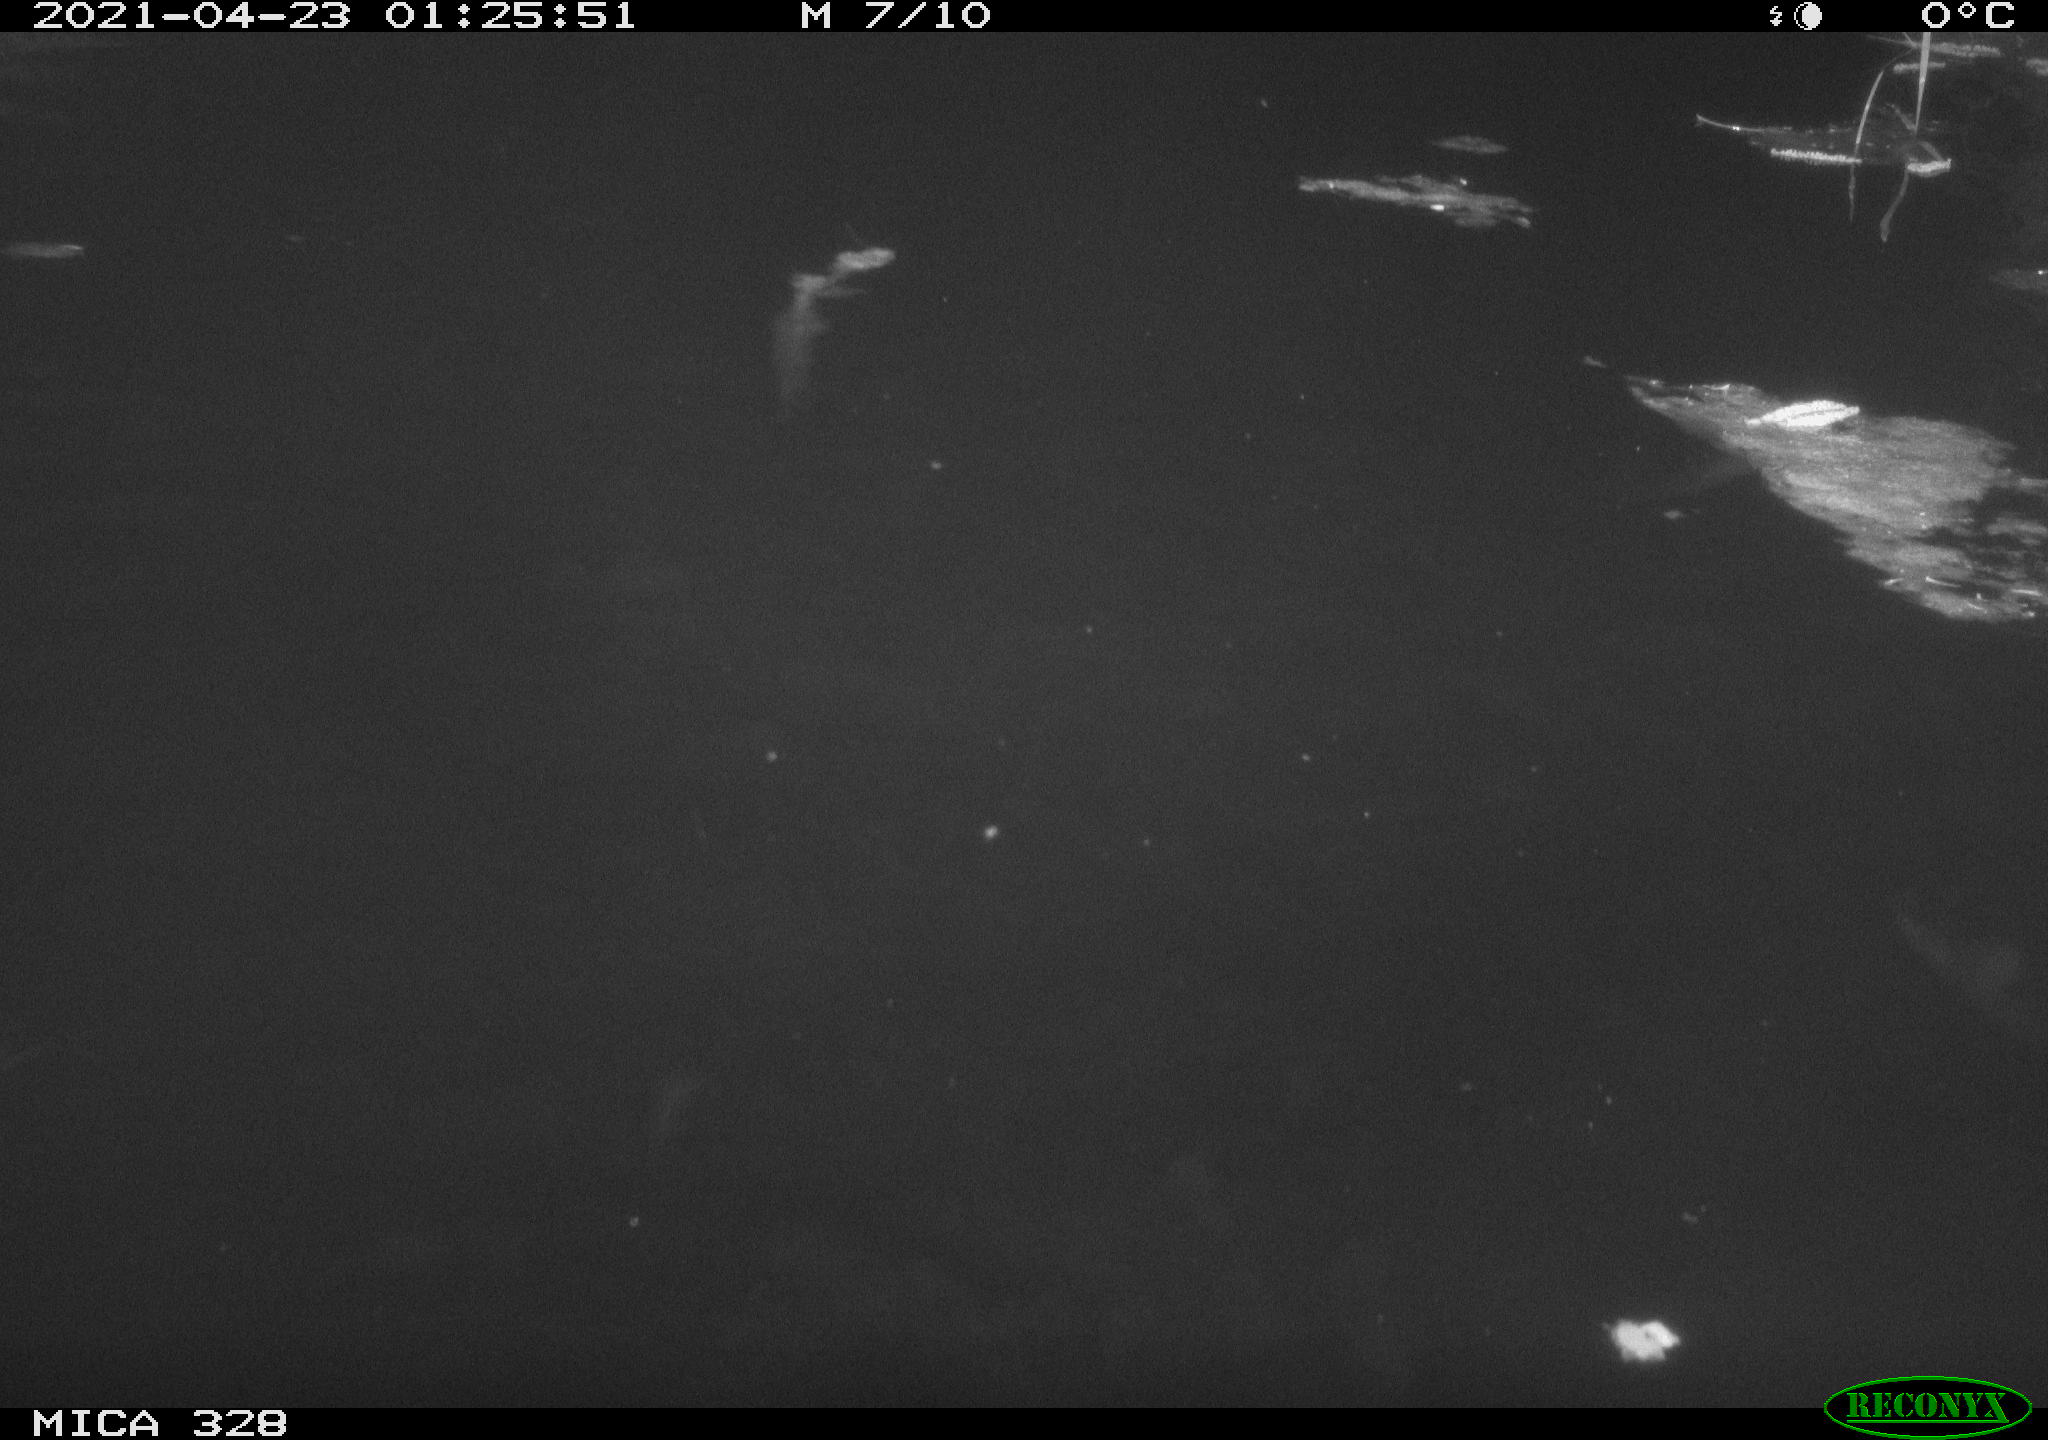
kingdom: Animalia
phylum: Chordata
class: Mammalia
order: Rodentia
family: Cricetidae
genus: Ondatra
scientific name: Ondatra zibethicus
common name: Muskrat
